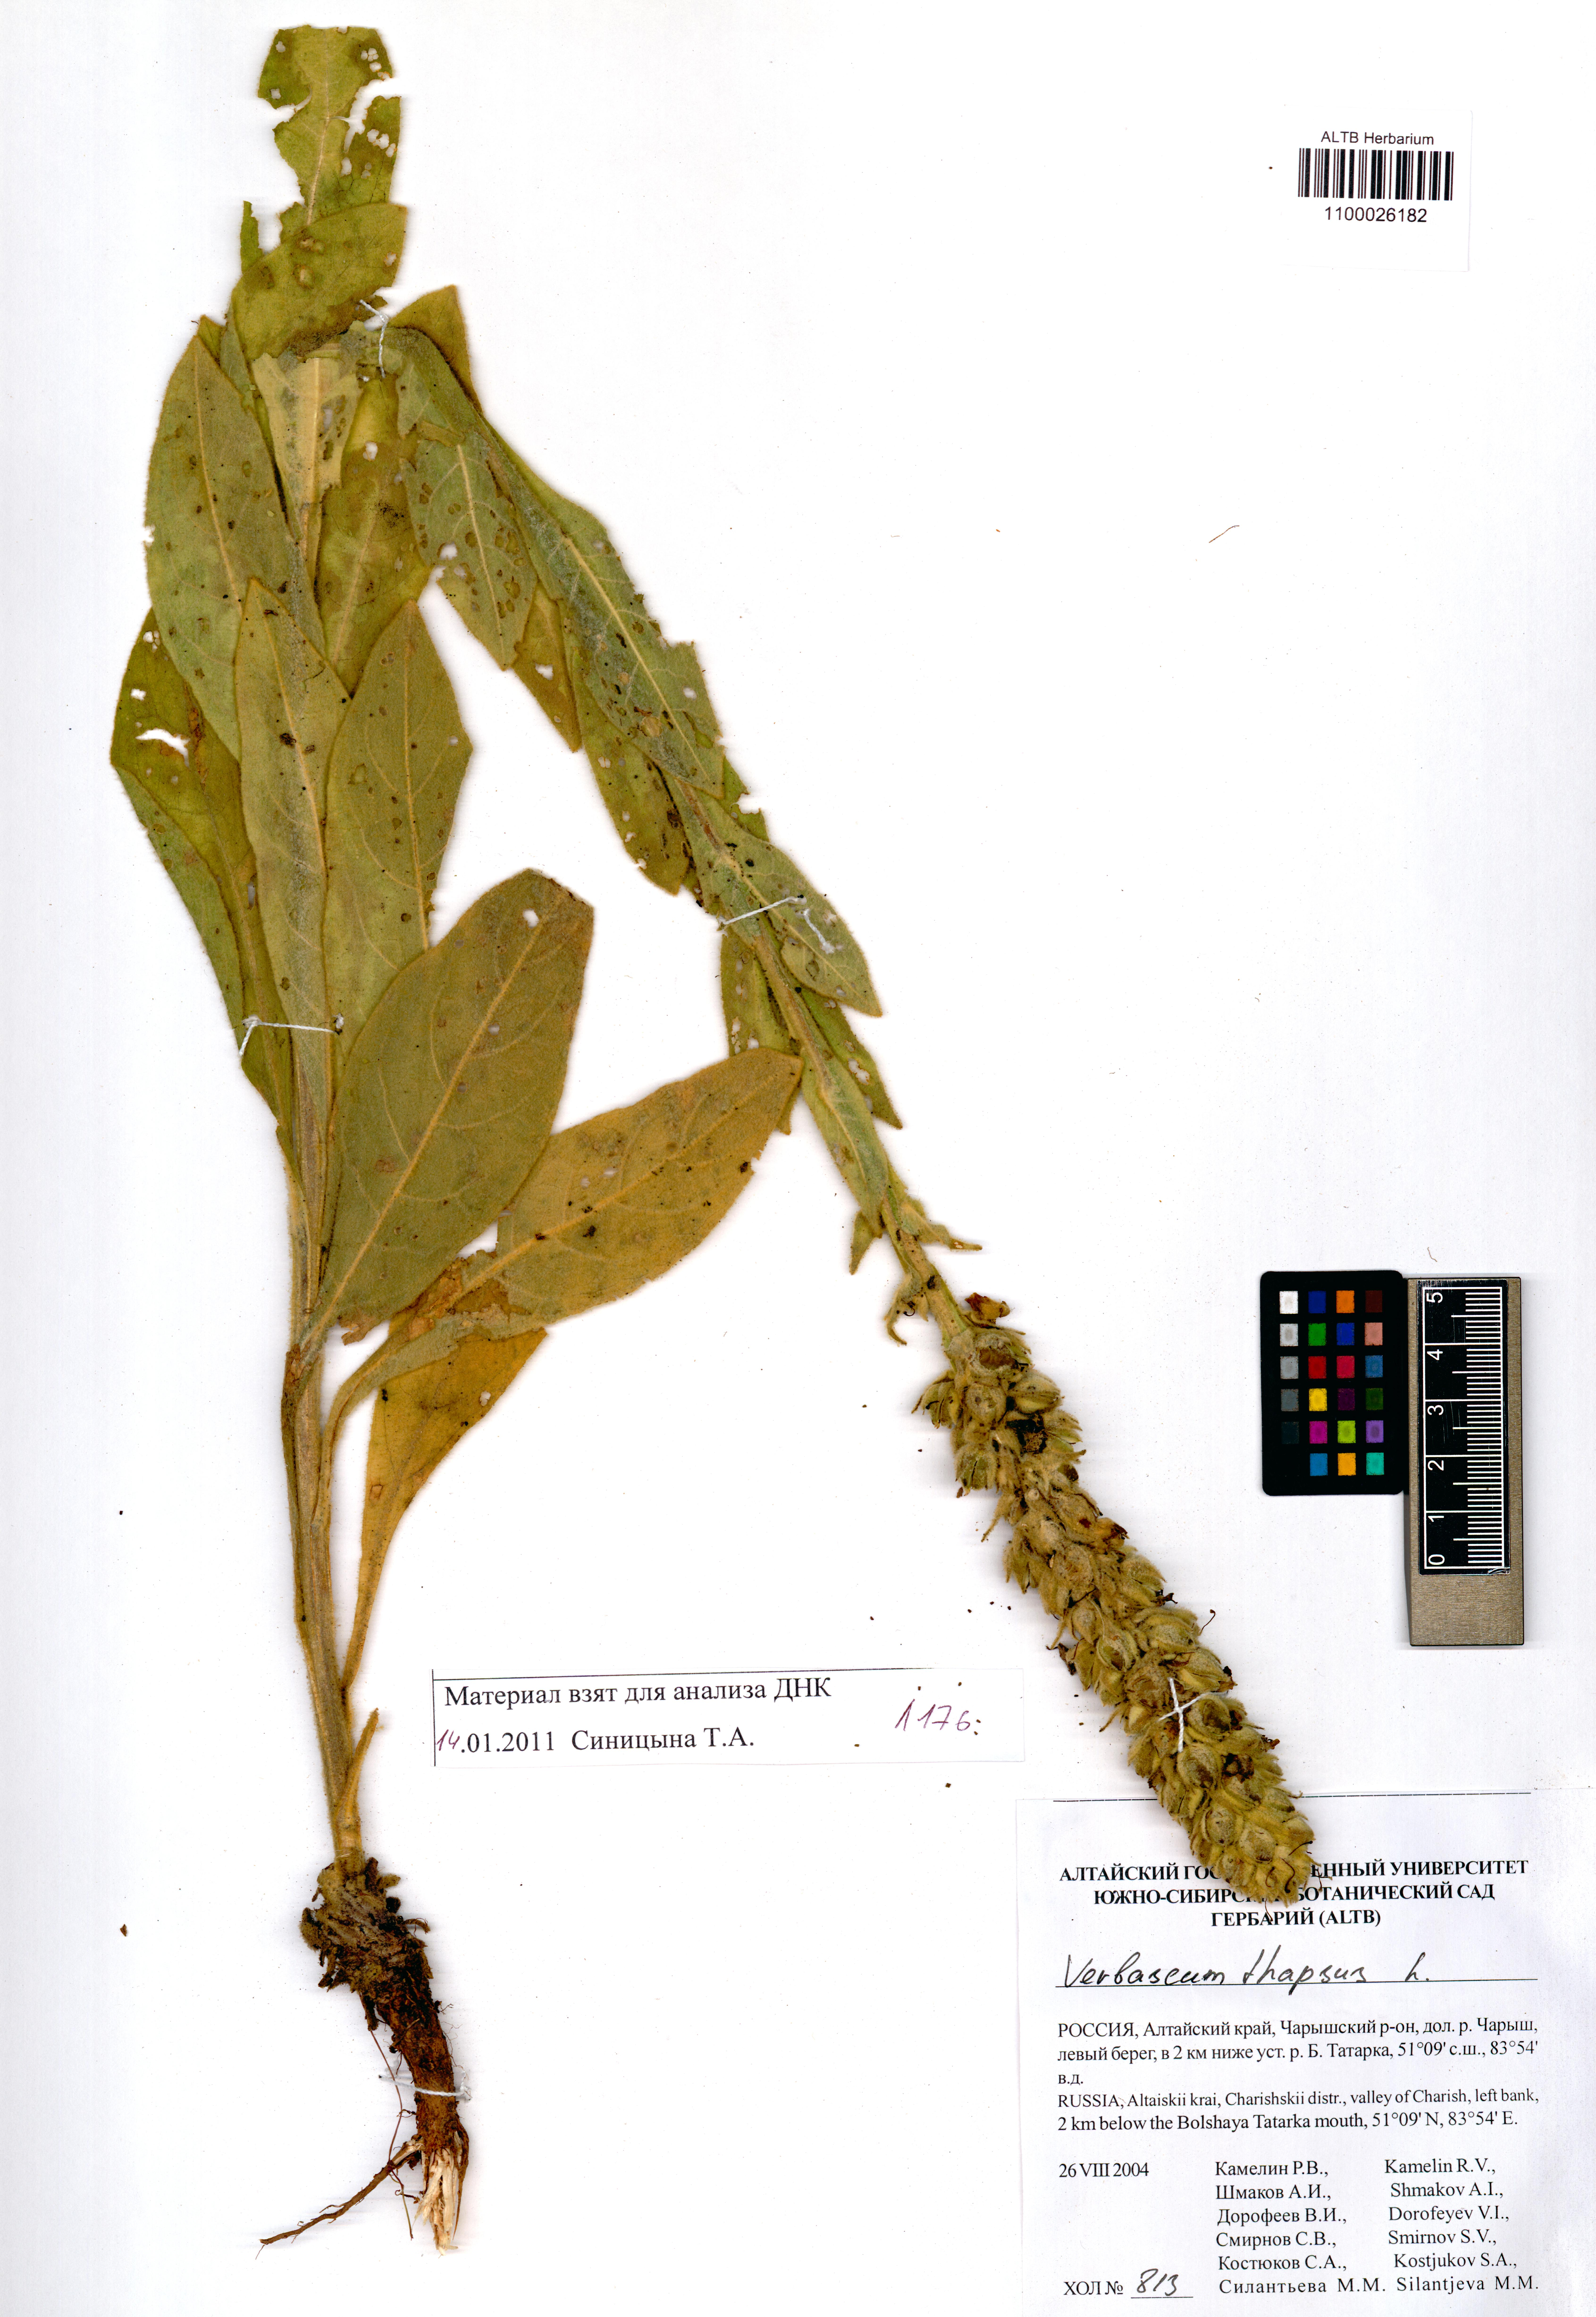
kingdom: Plantae
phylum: Tracheophyta
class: Magnoliopsida
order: Lamiales
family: Scrophulariaceae
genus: Verbascum
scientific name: Verbascum thapsus
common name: Common mullein
